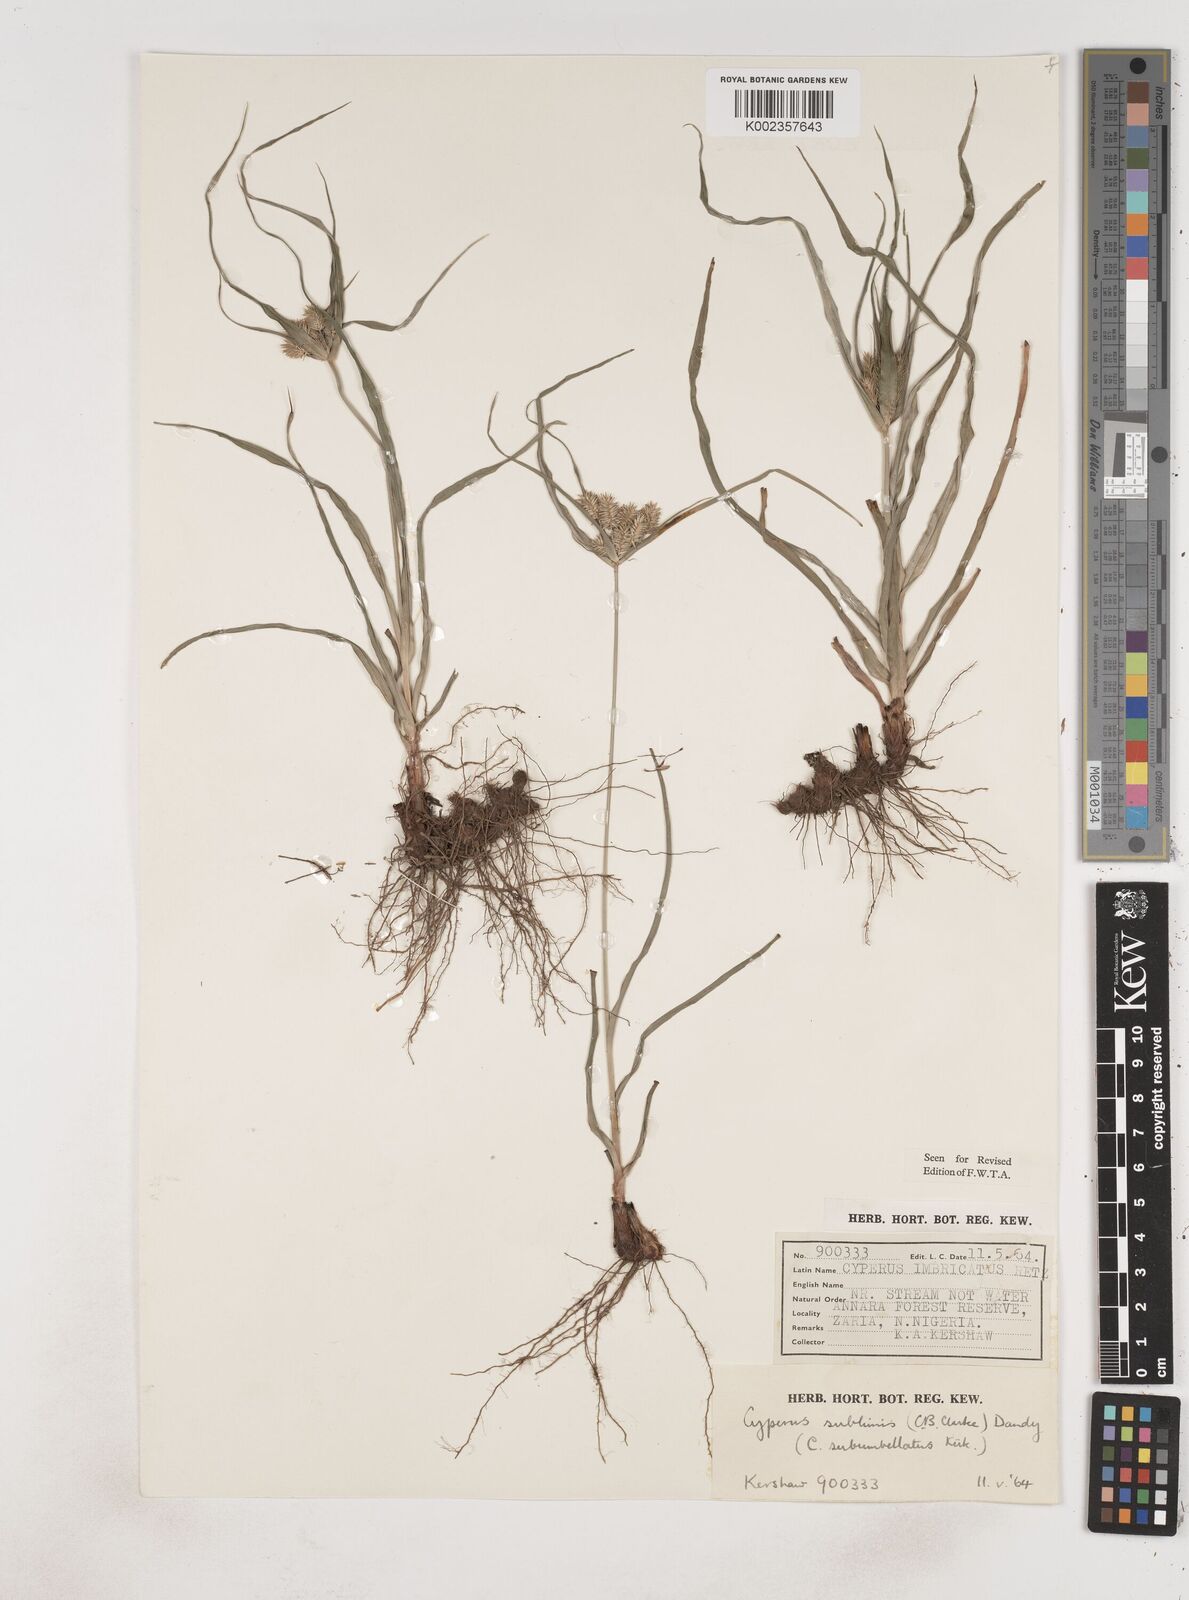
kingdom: Plantae
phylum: Tracheophyta
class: Liliopsida
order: Poales
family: Cyperaceae
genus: Cyperus
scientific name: Cyperus cyperoides
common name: Pacific island flat sedge
